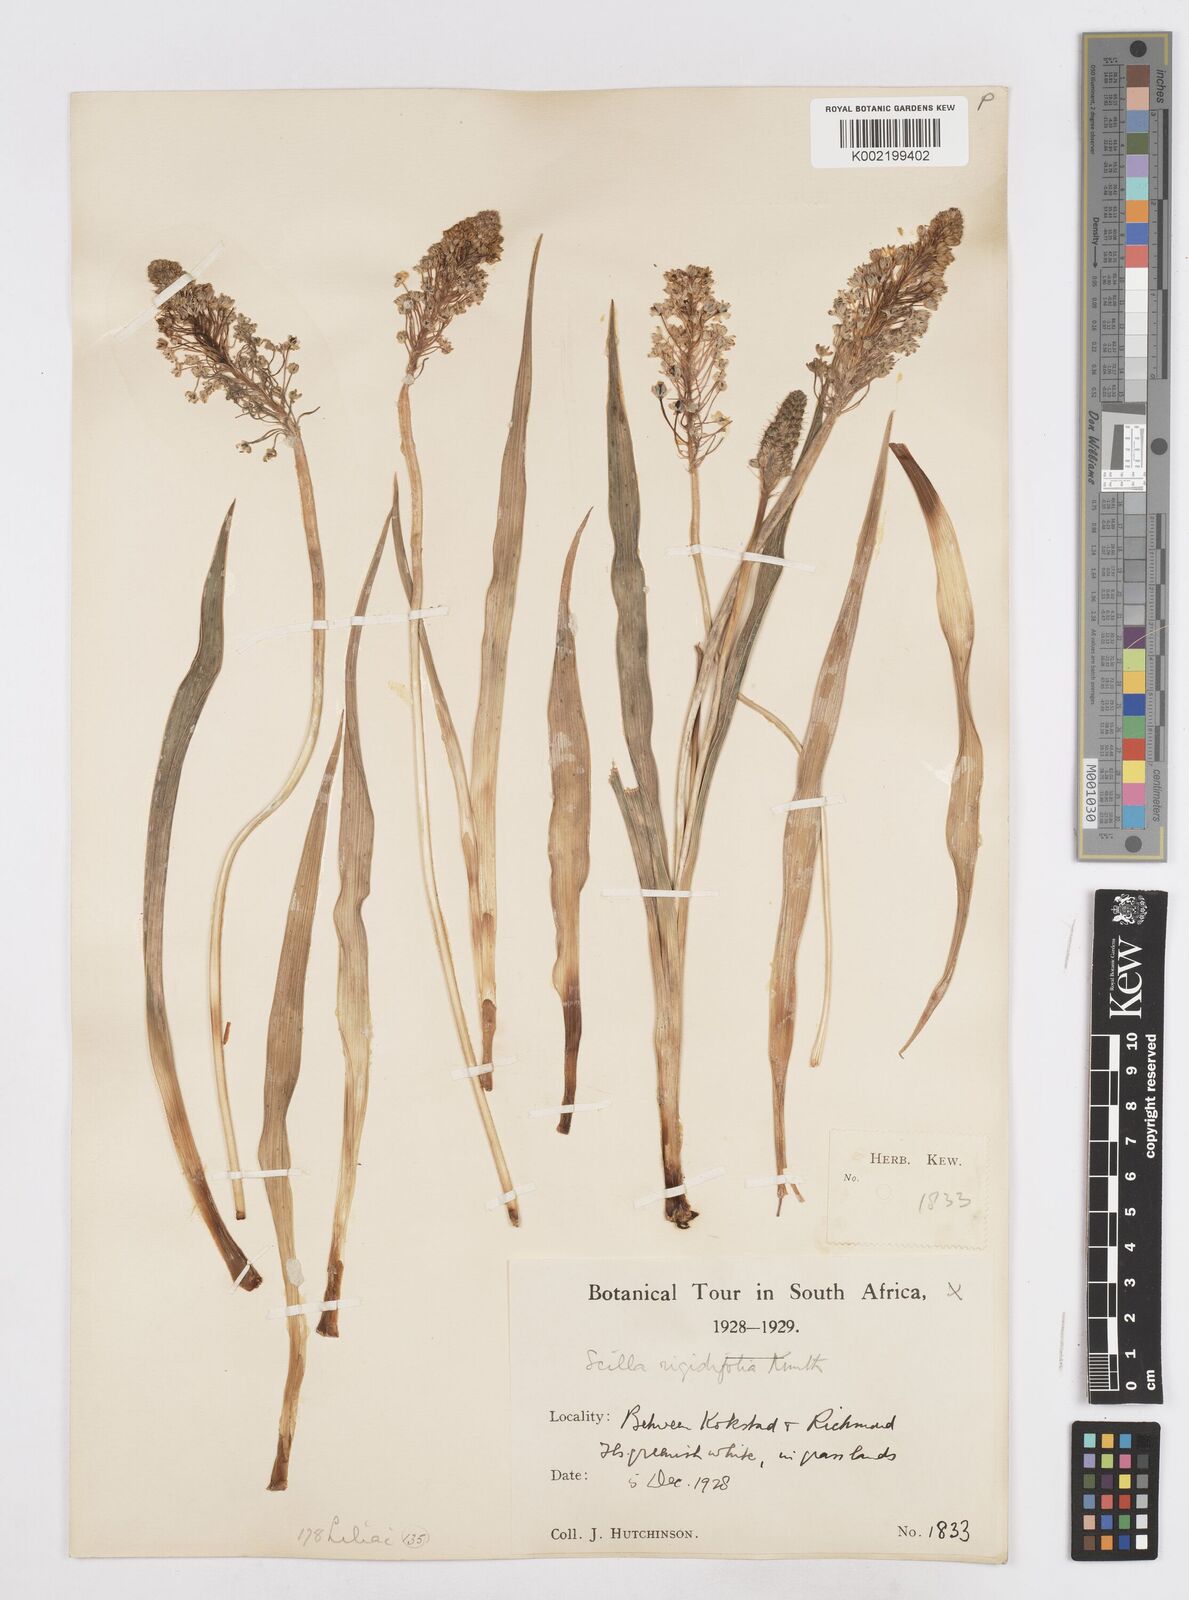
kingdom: Plantae
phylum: Tracheophyta
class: Liliopsida
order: Asparagales
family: Asparagaceae
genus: Schizocarphus
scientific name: Schizocarphus nervosus
